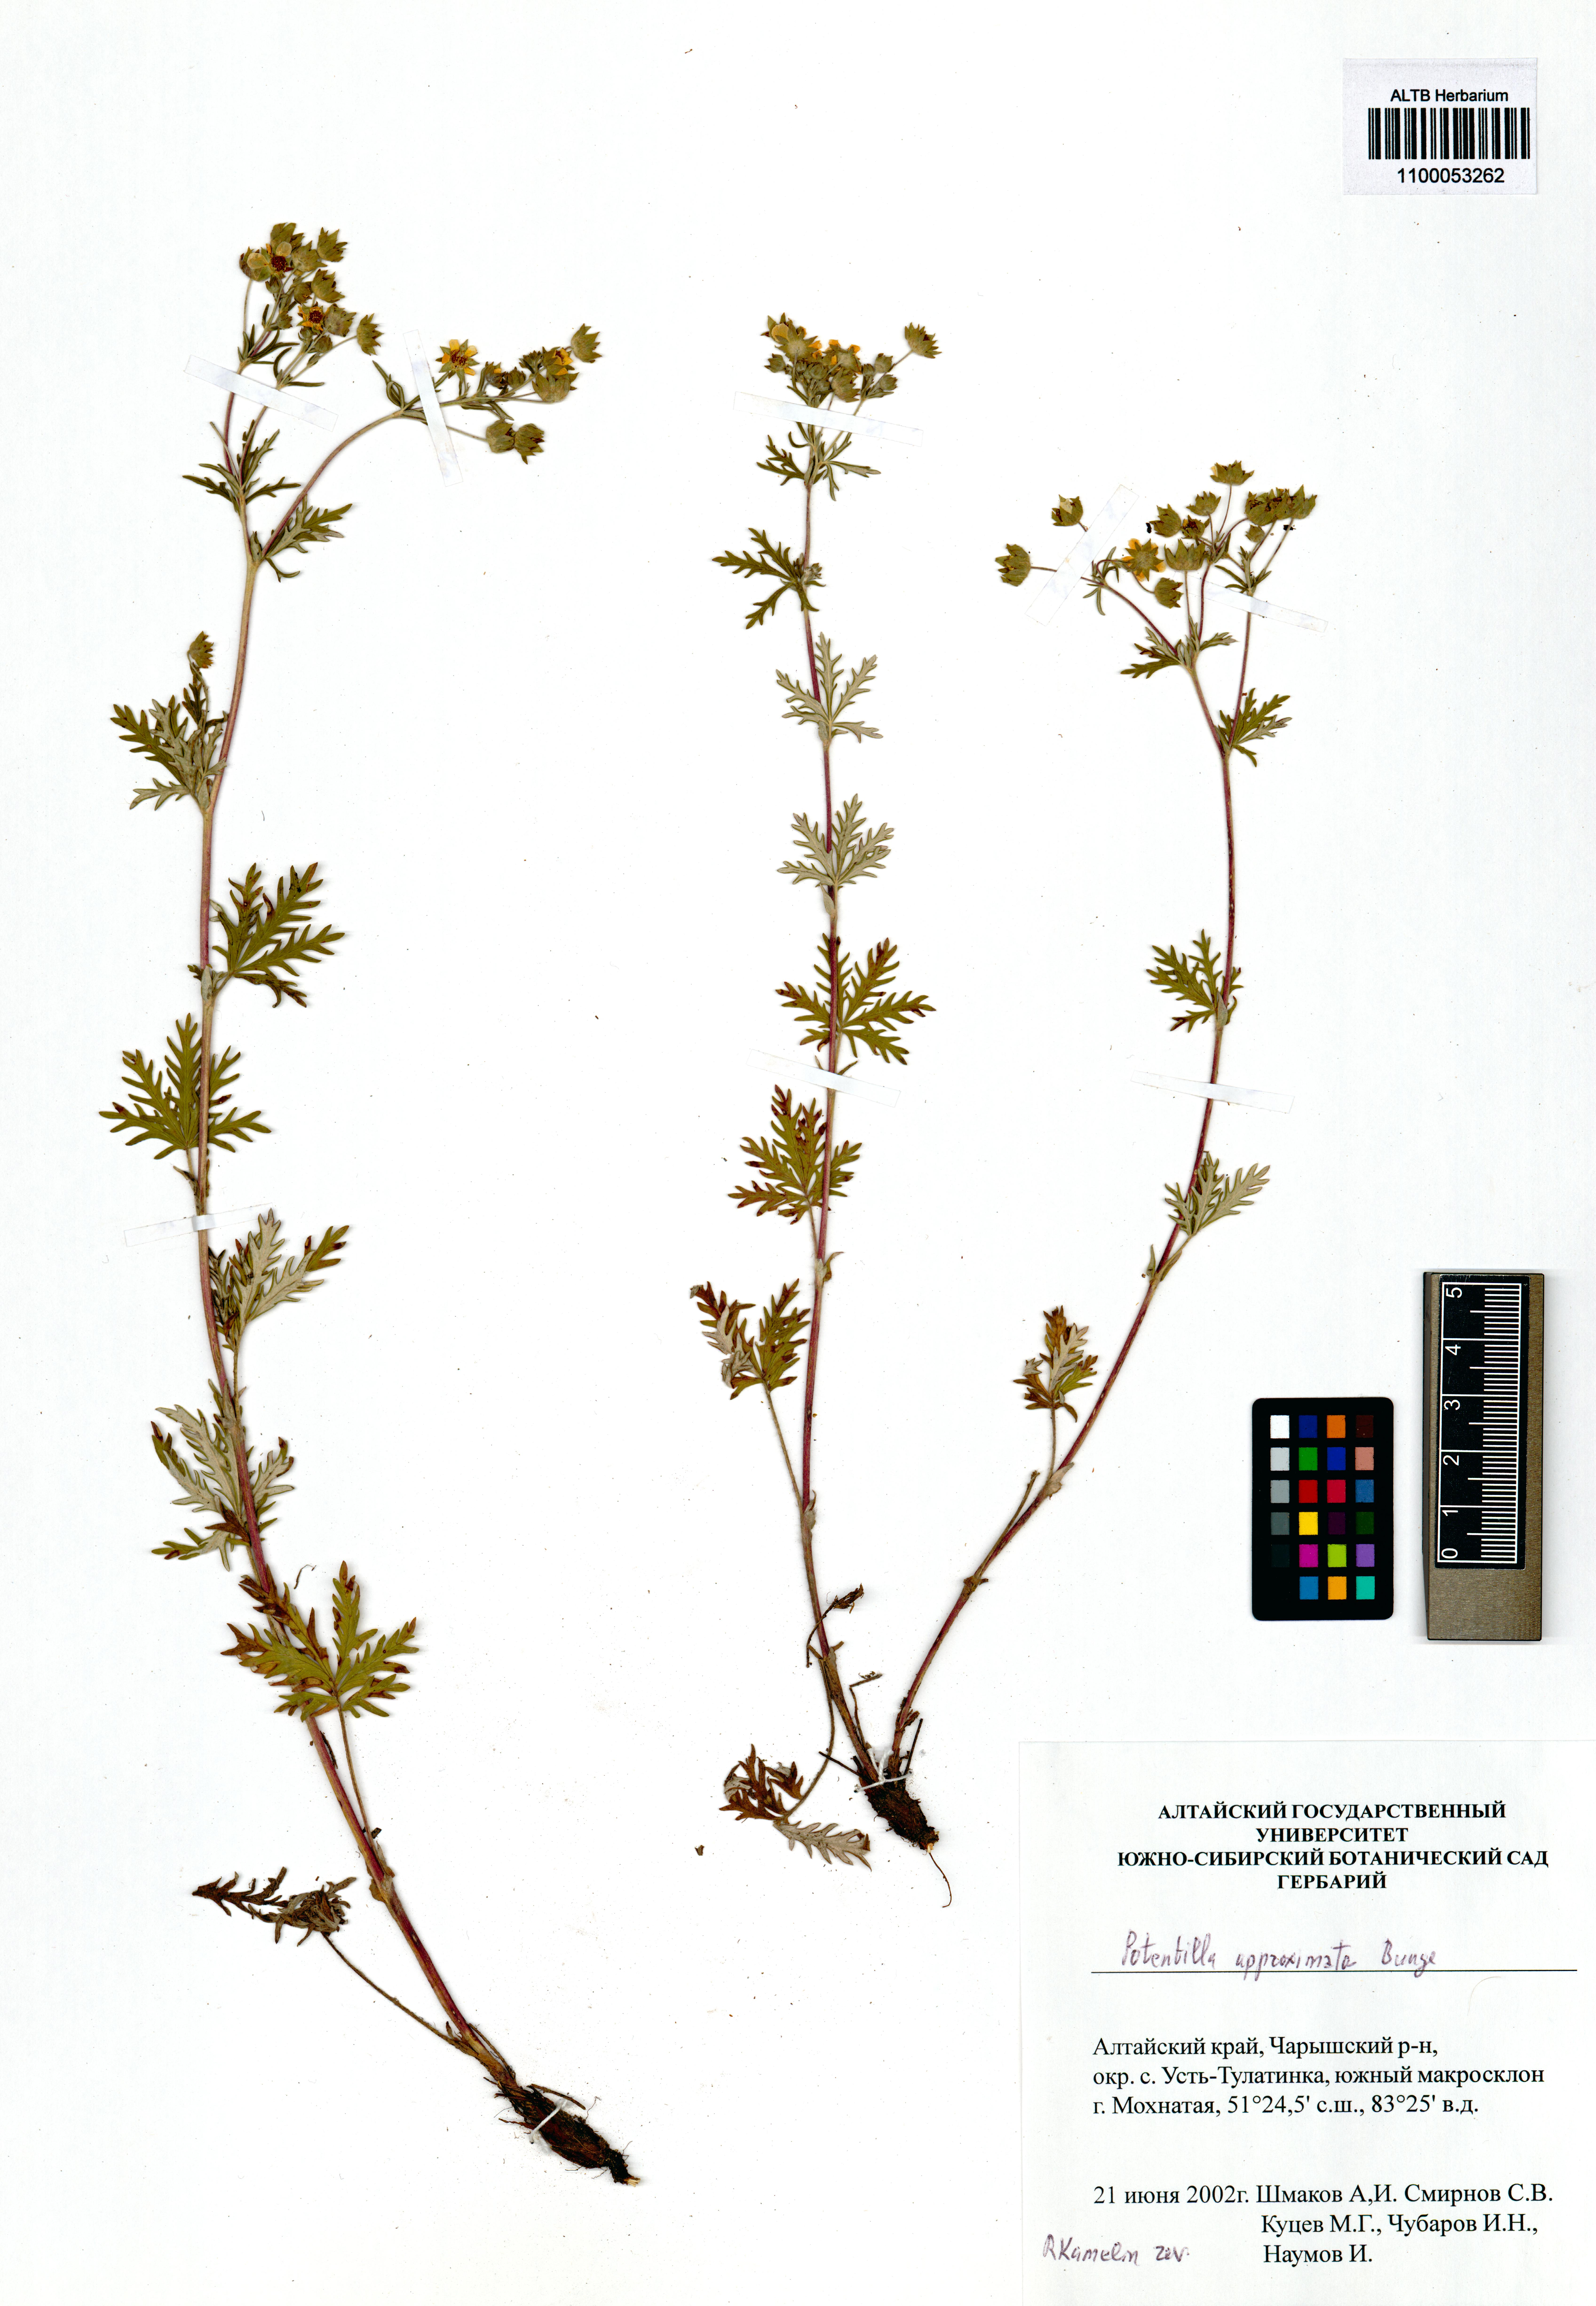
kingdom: Plantae
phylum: Tracheophyta
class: Magnoliopsida
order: Rosales
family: Rosaceae
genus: Potentilla
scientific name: Potentilla conferta
